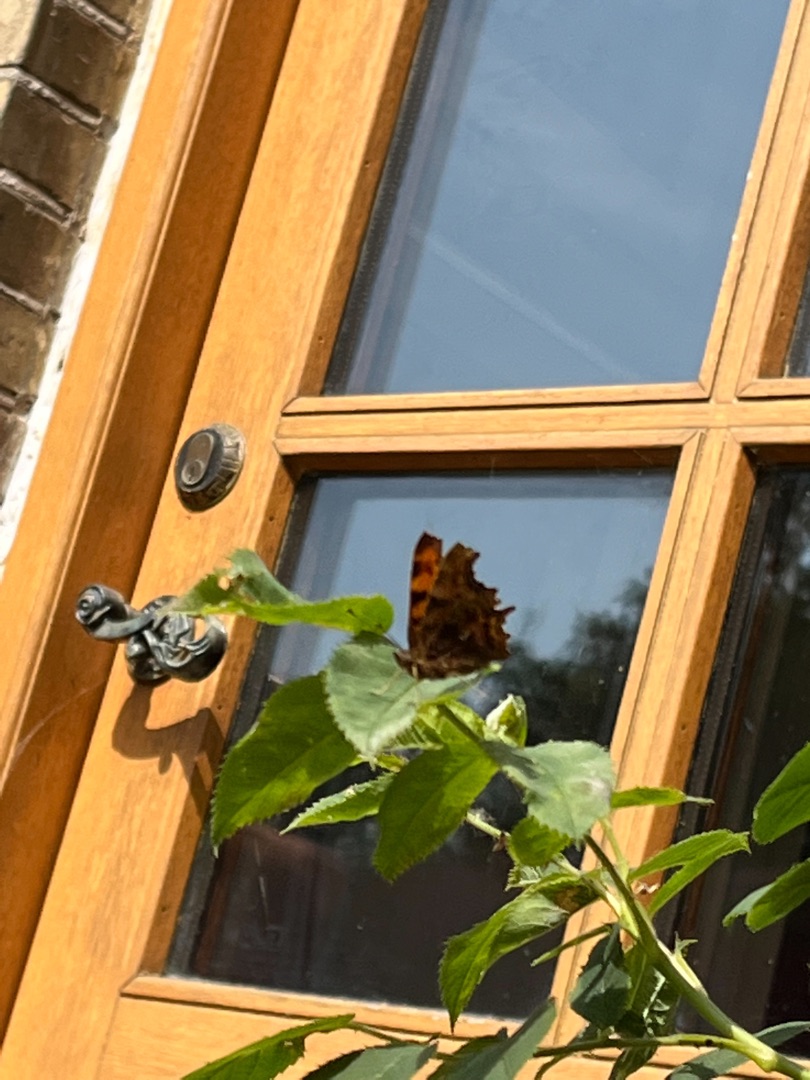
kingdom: Animalia
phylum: Arthropoda
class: Insecta
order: Lepidoptera
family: Nymphalidae
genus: Polygonia
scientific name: Polygonia c-album
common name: Det hvide C
